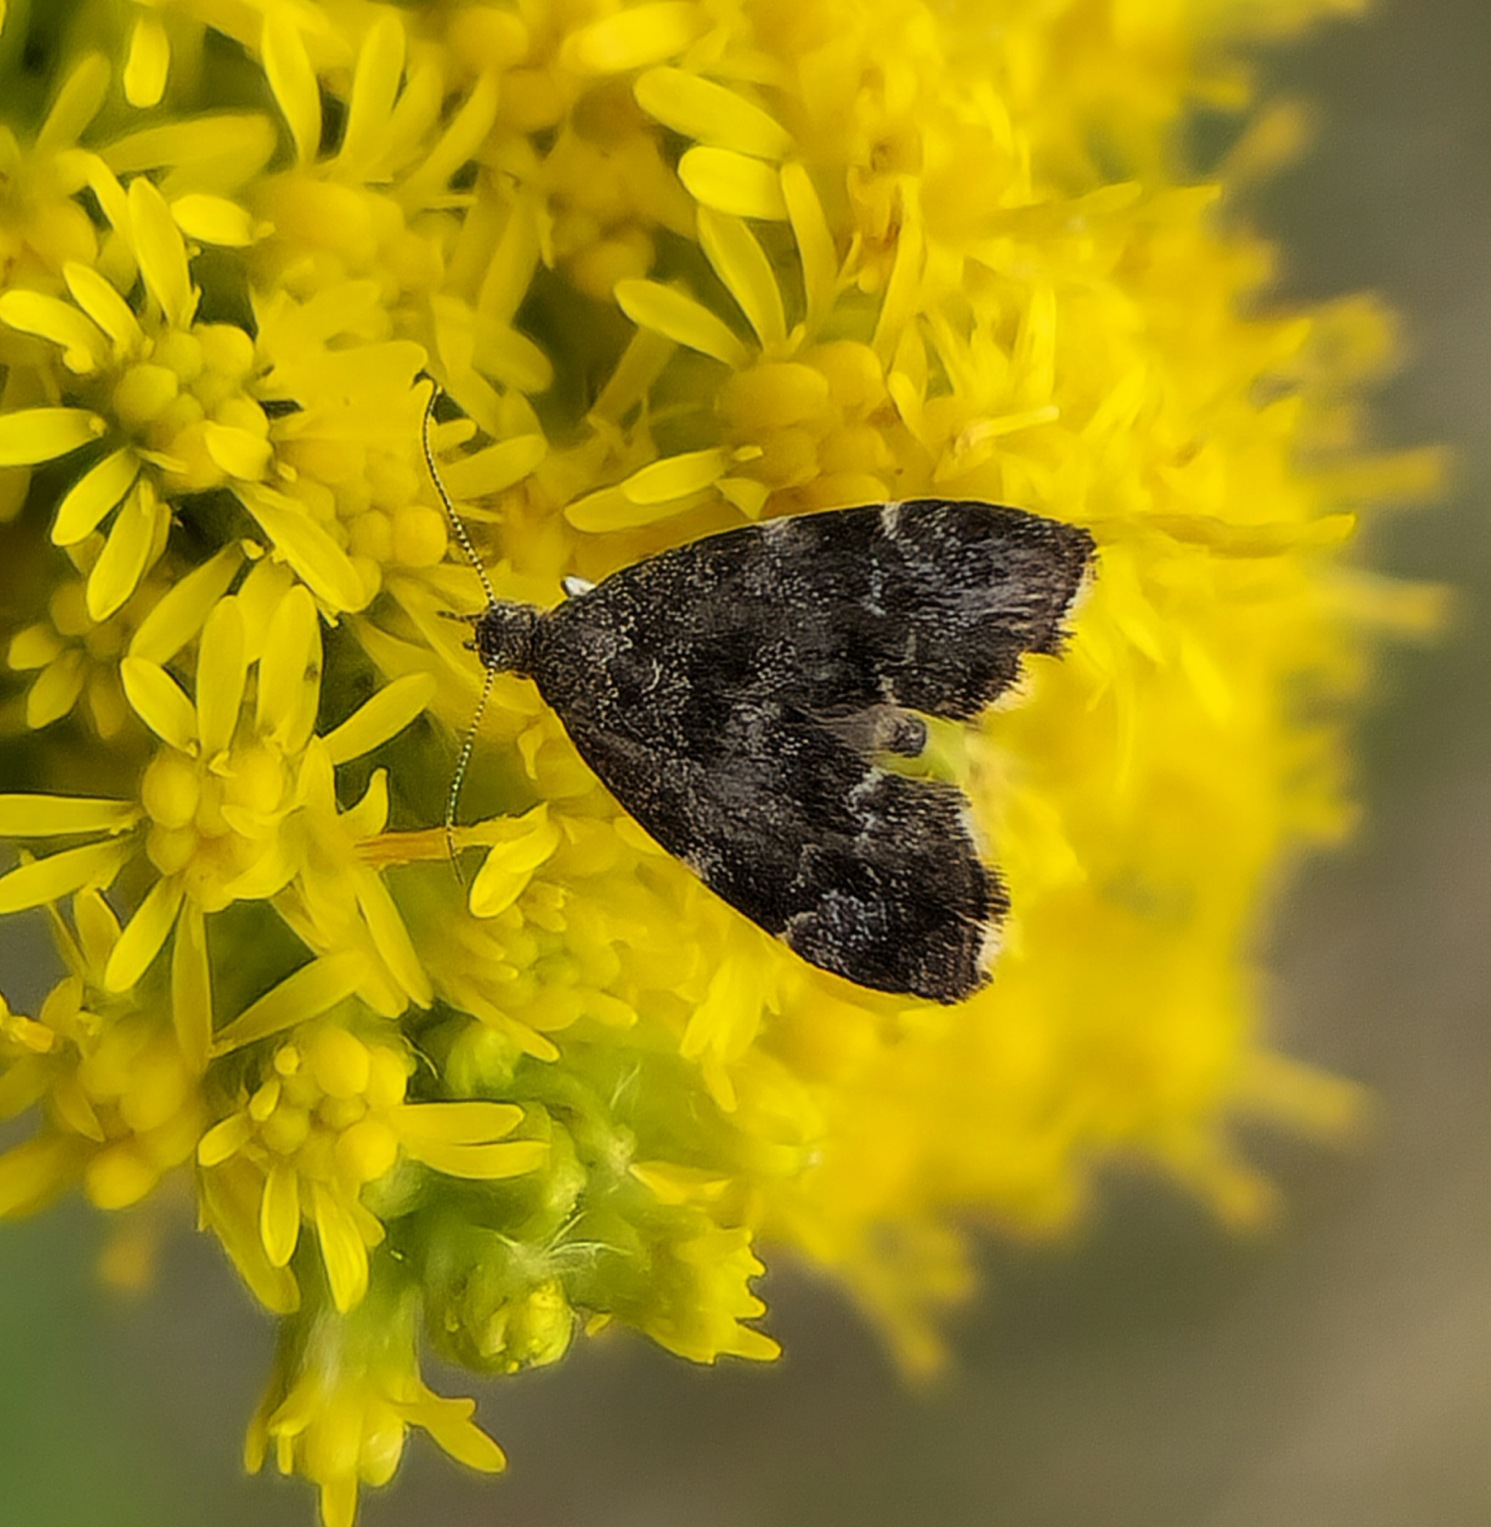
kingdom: Animalia
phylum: Arthropoda
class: Insecta
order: Lepidoptera
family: Choreutidae
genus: Anthophila
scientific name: Anthophila fabriciana
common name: Bredvinget nældevikler
